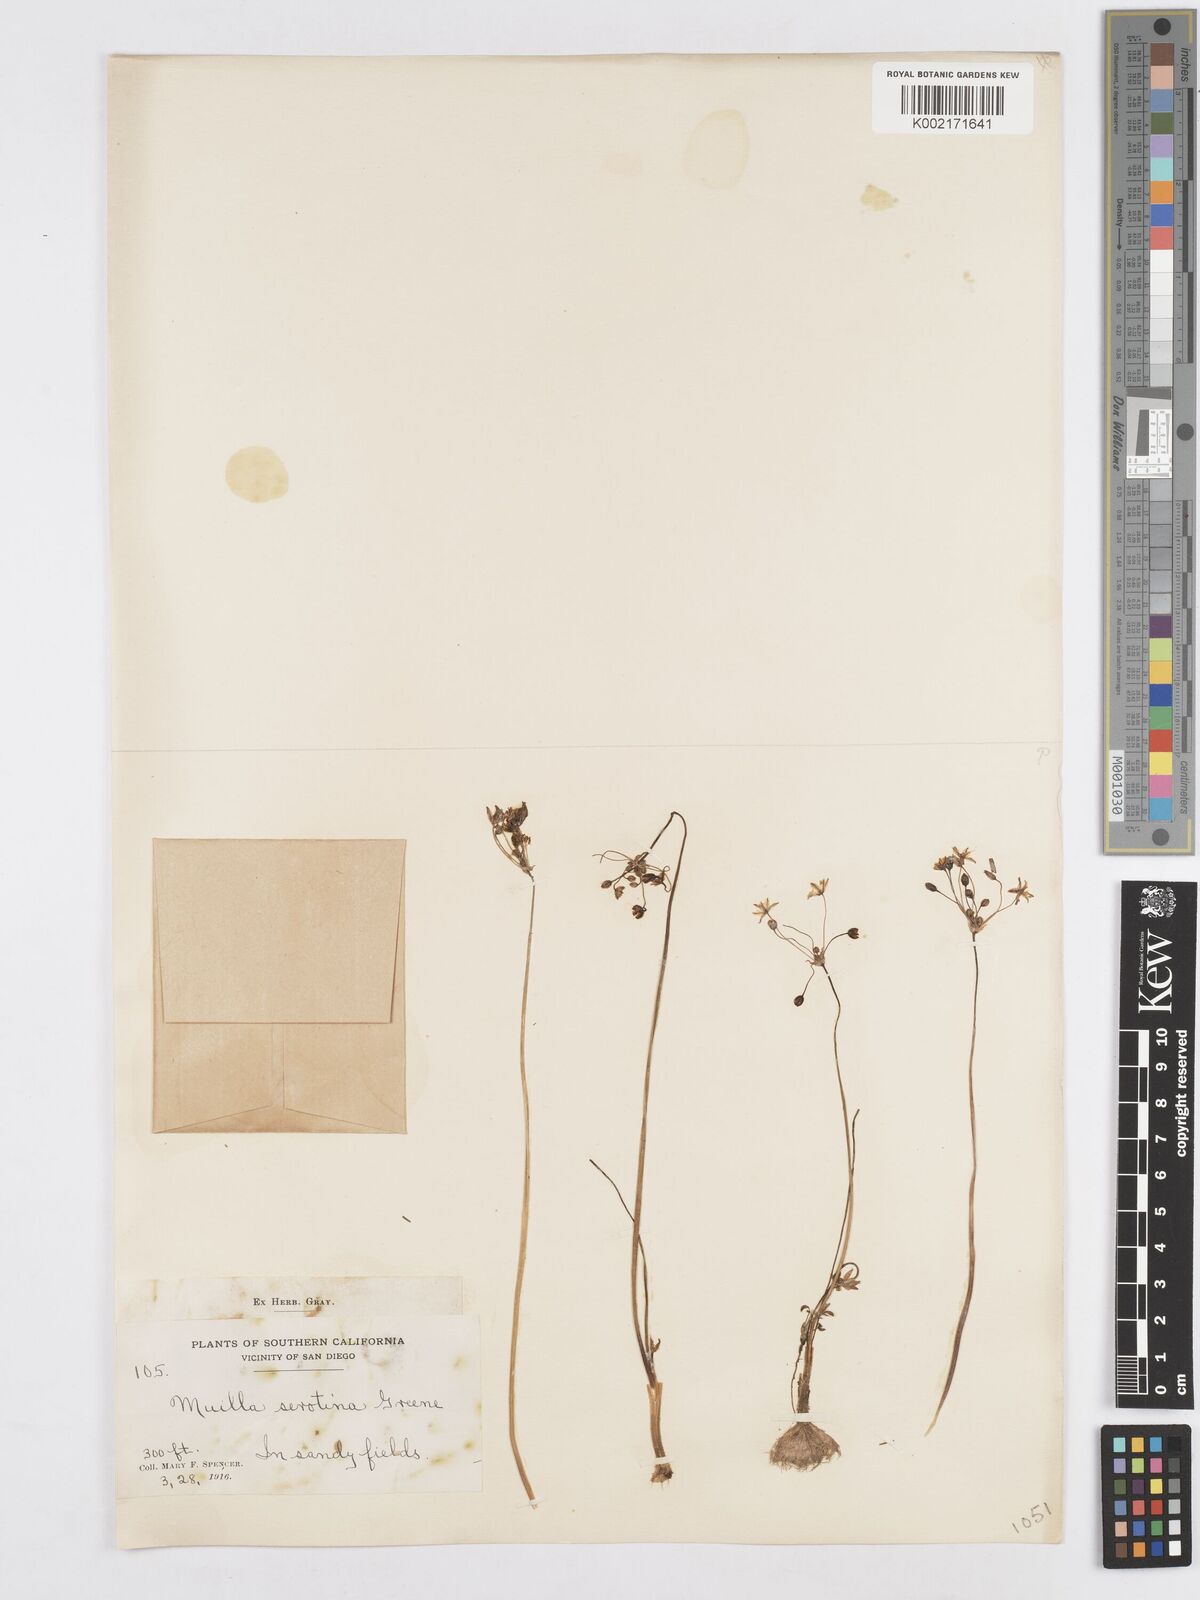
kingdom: Plantae
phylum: Tracheophyta
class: Liliopsida
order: Asparagales
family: Asparagaceae
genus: Muilla
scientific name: Muilla maritima
